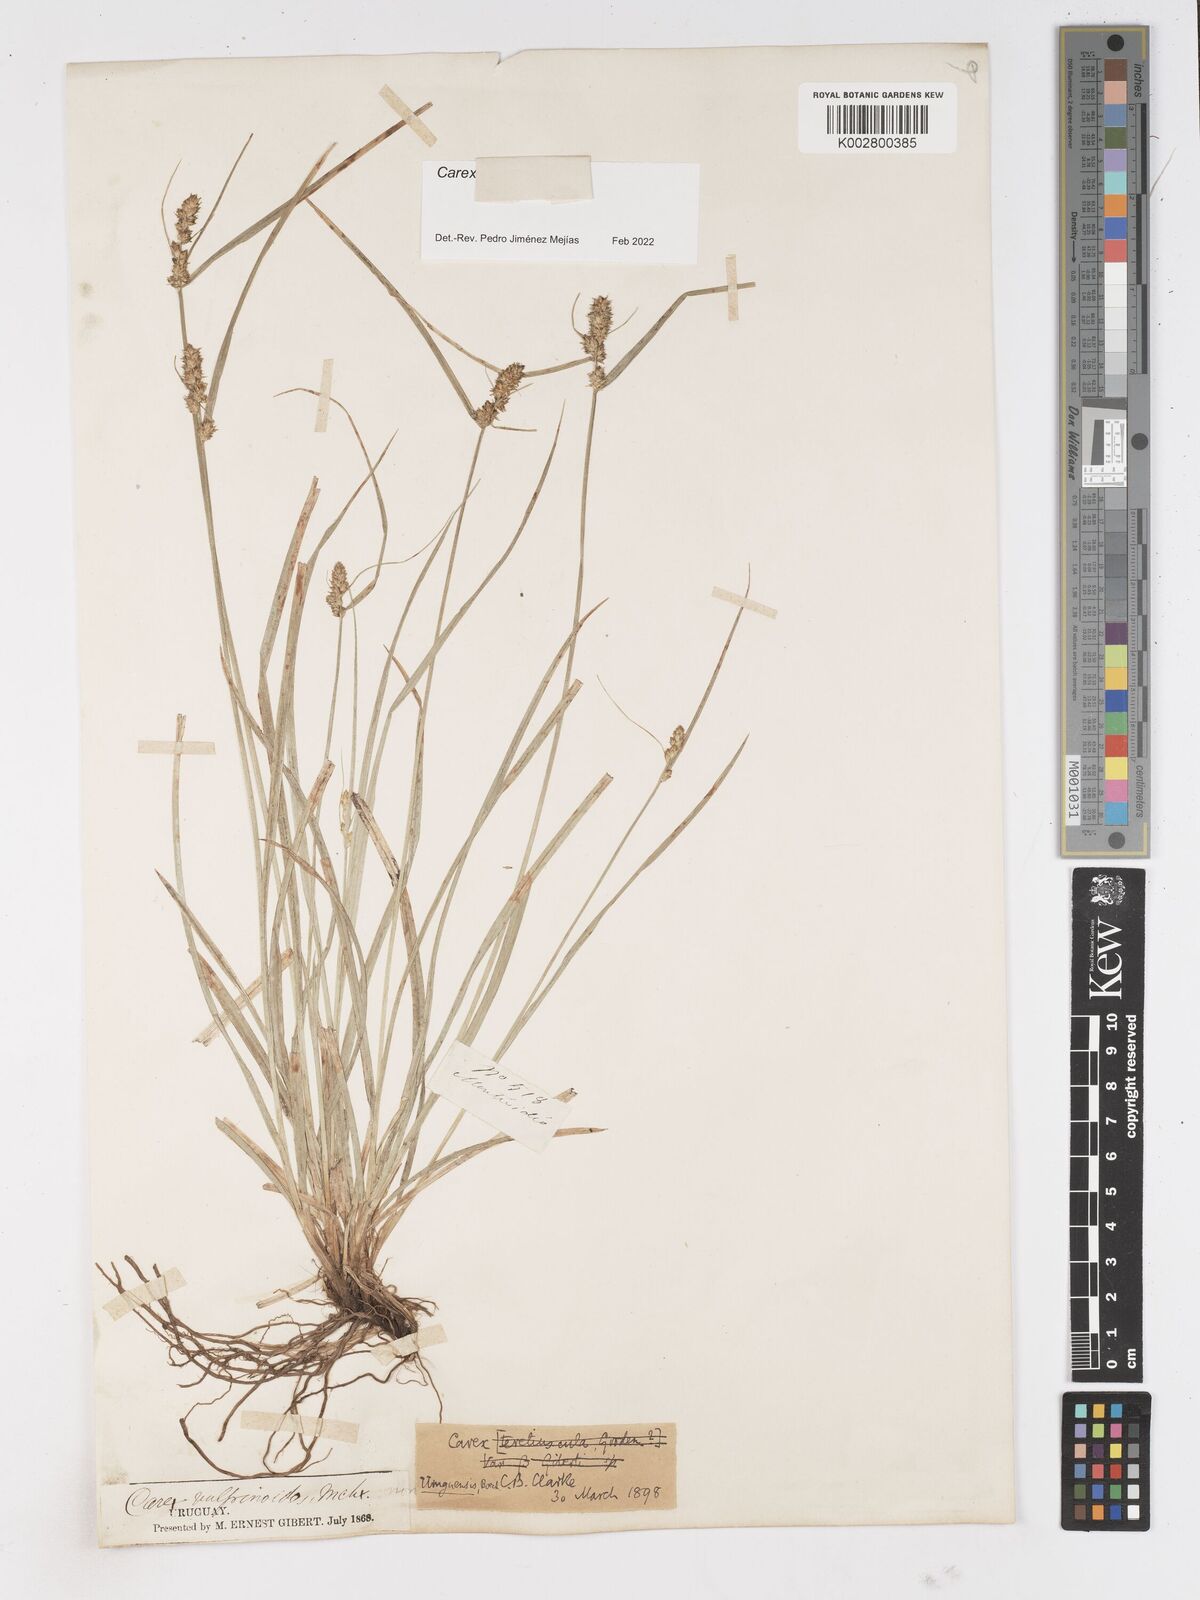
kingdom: Plantae
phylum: Tracheophyta
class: Liliopsida
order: Poales
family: Cyperaceae
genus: Carex
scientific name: Carex uruguensis
